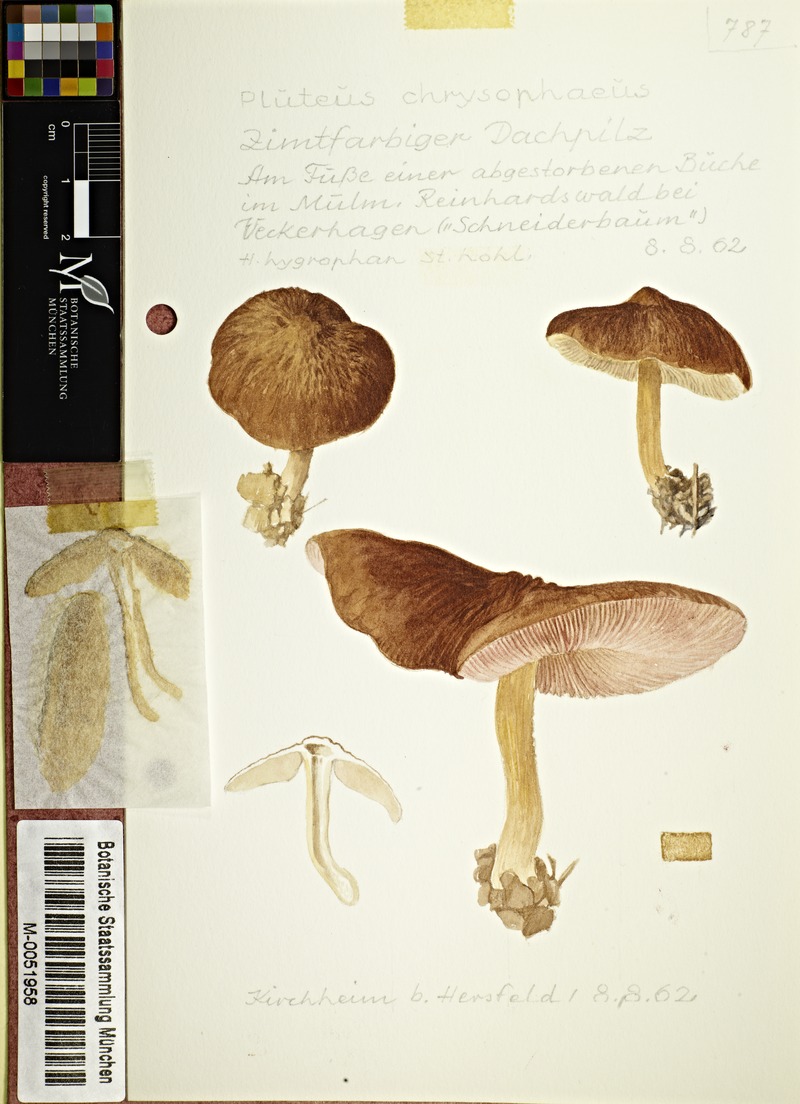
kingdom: Fungi
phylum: Basidiomycota
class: Agaricomycetes
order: Agaricales
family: Pluteaceae
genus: Pluteus
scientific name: Pluteus chrysophaeus
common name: Yellow shield
